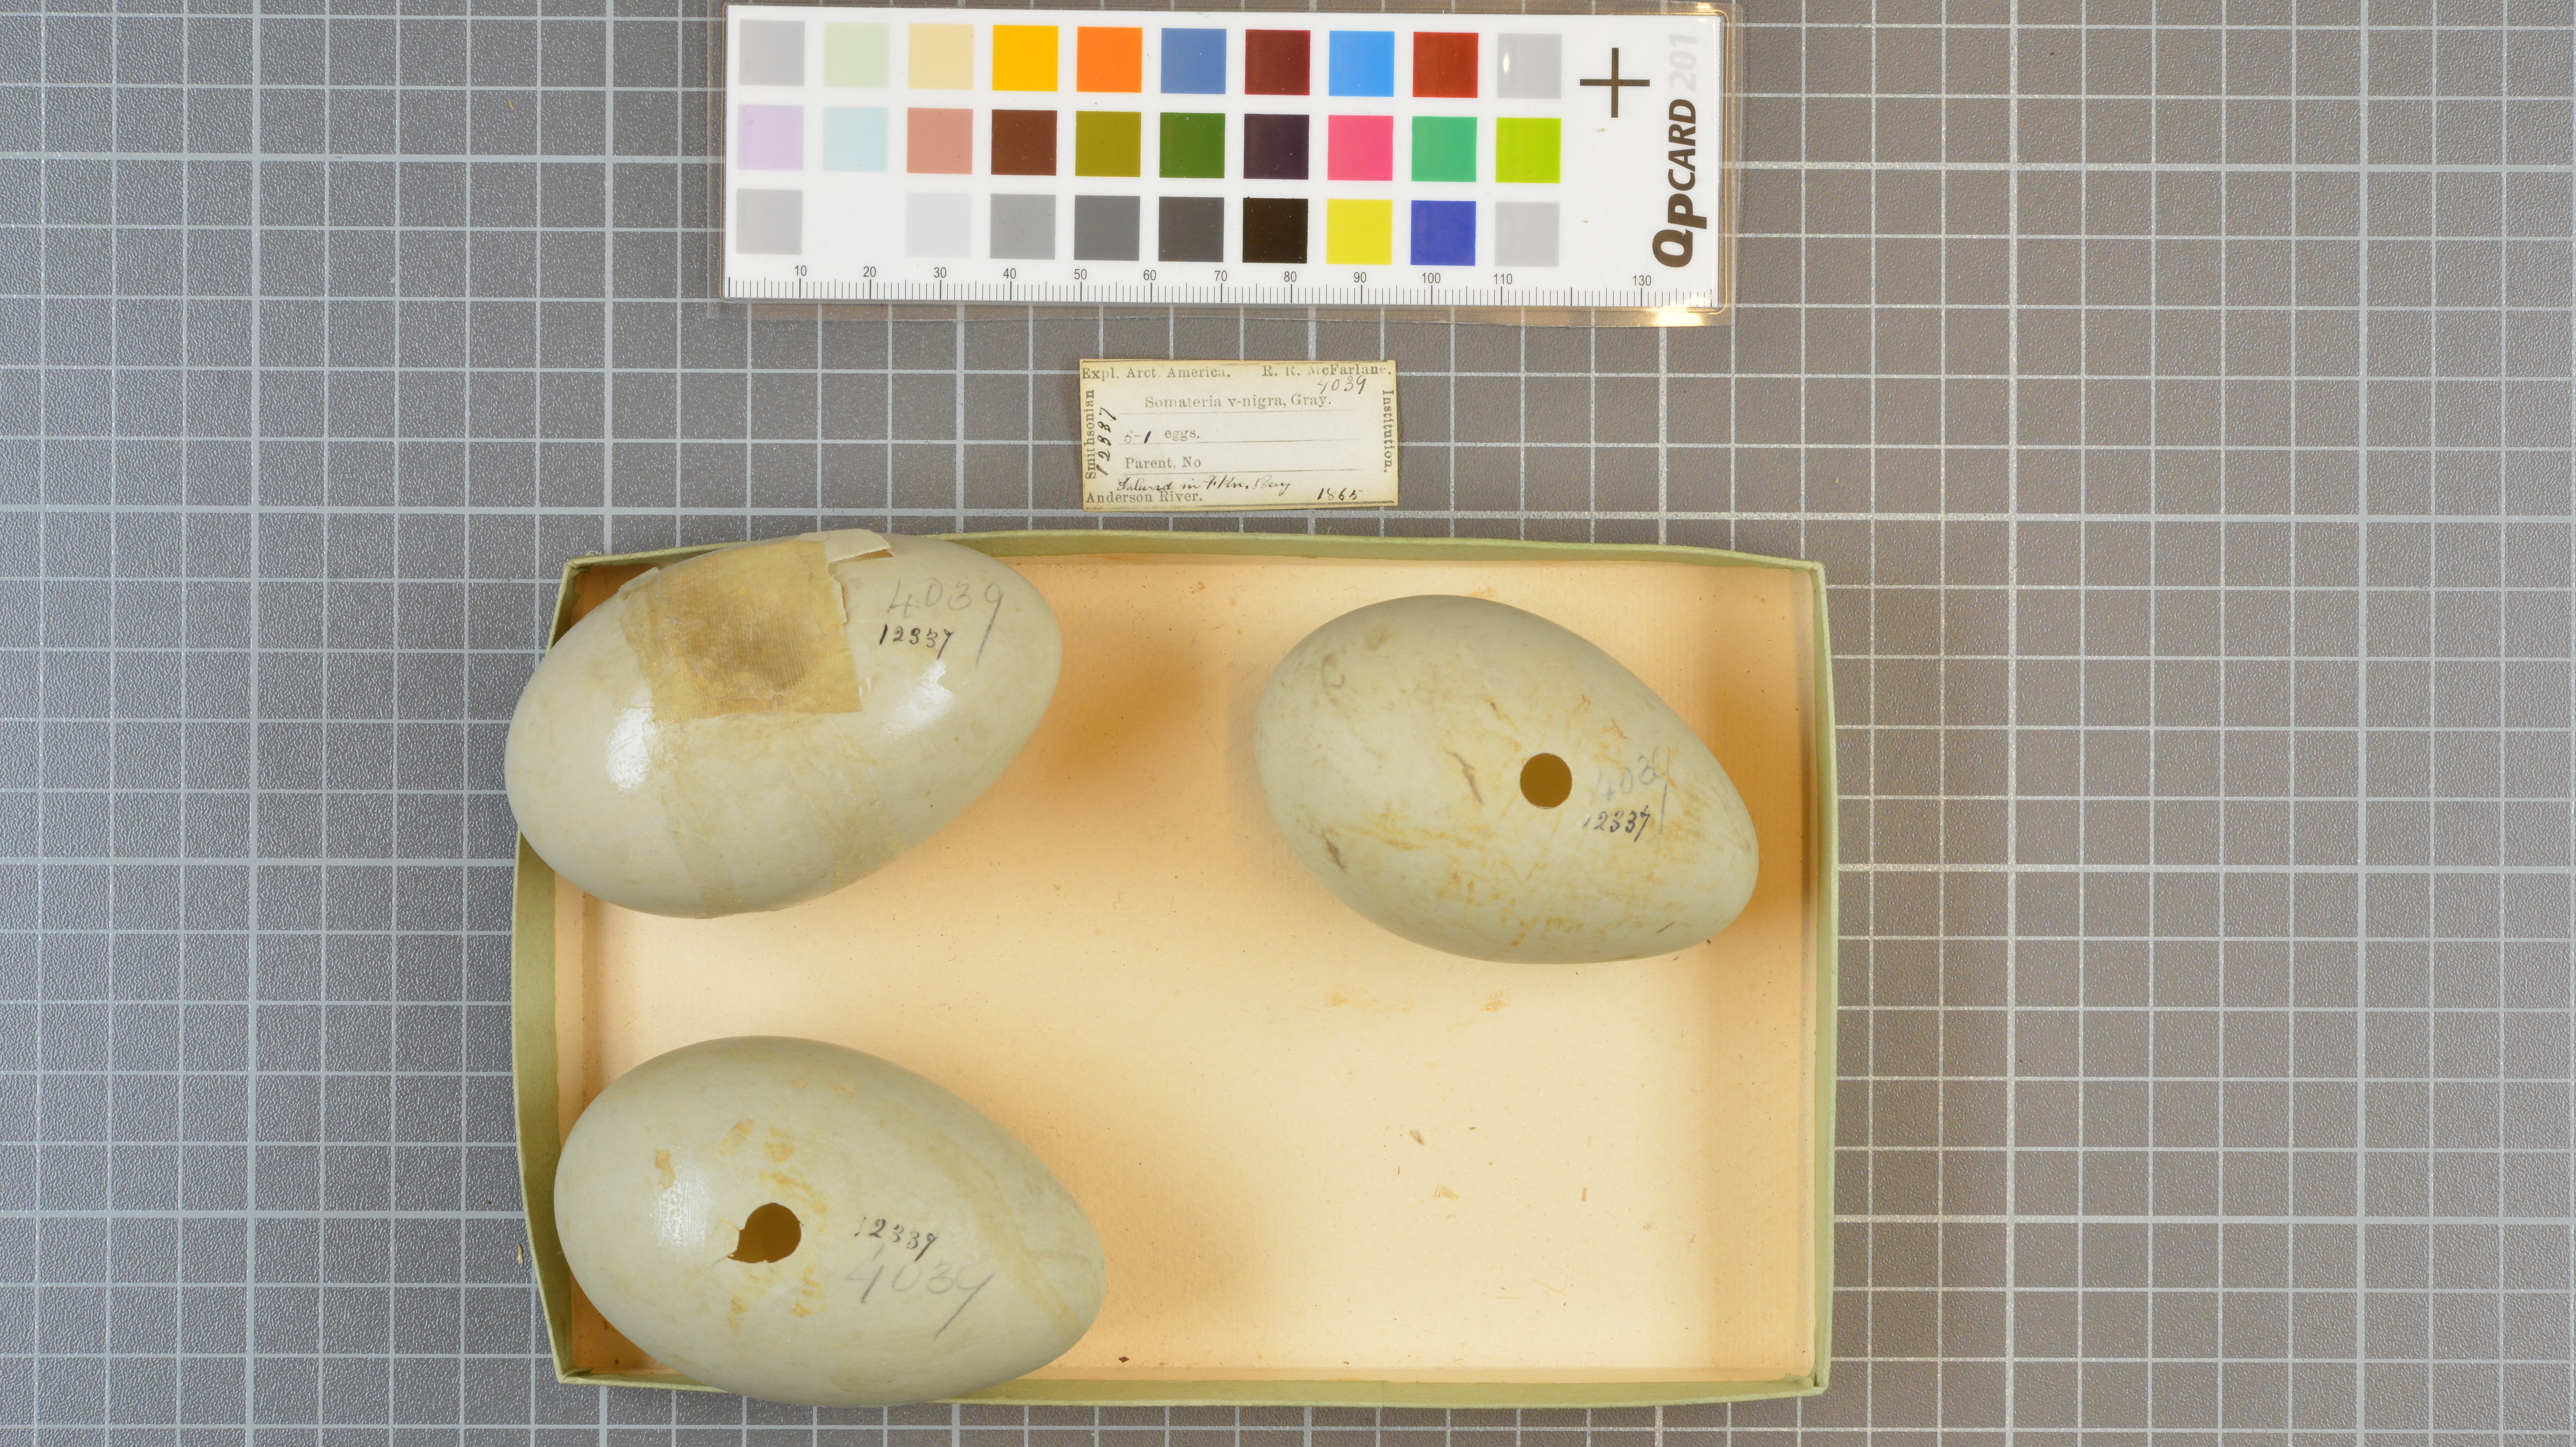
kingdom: Animalia
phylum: Chordata
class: Aves
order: Anseriformes
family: Anatidae
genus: Somateria
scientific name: Somateria mollissima
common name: Common eider
